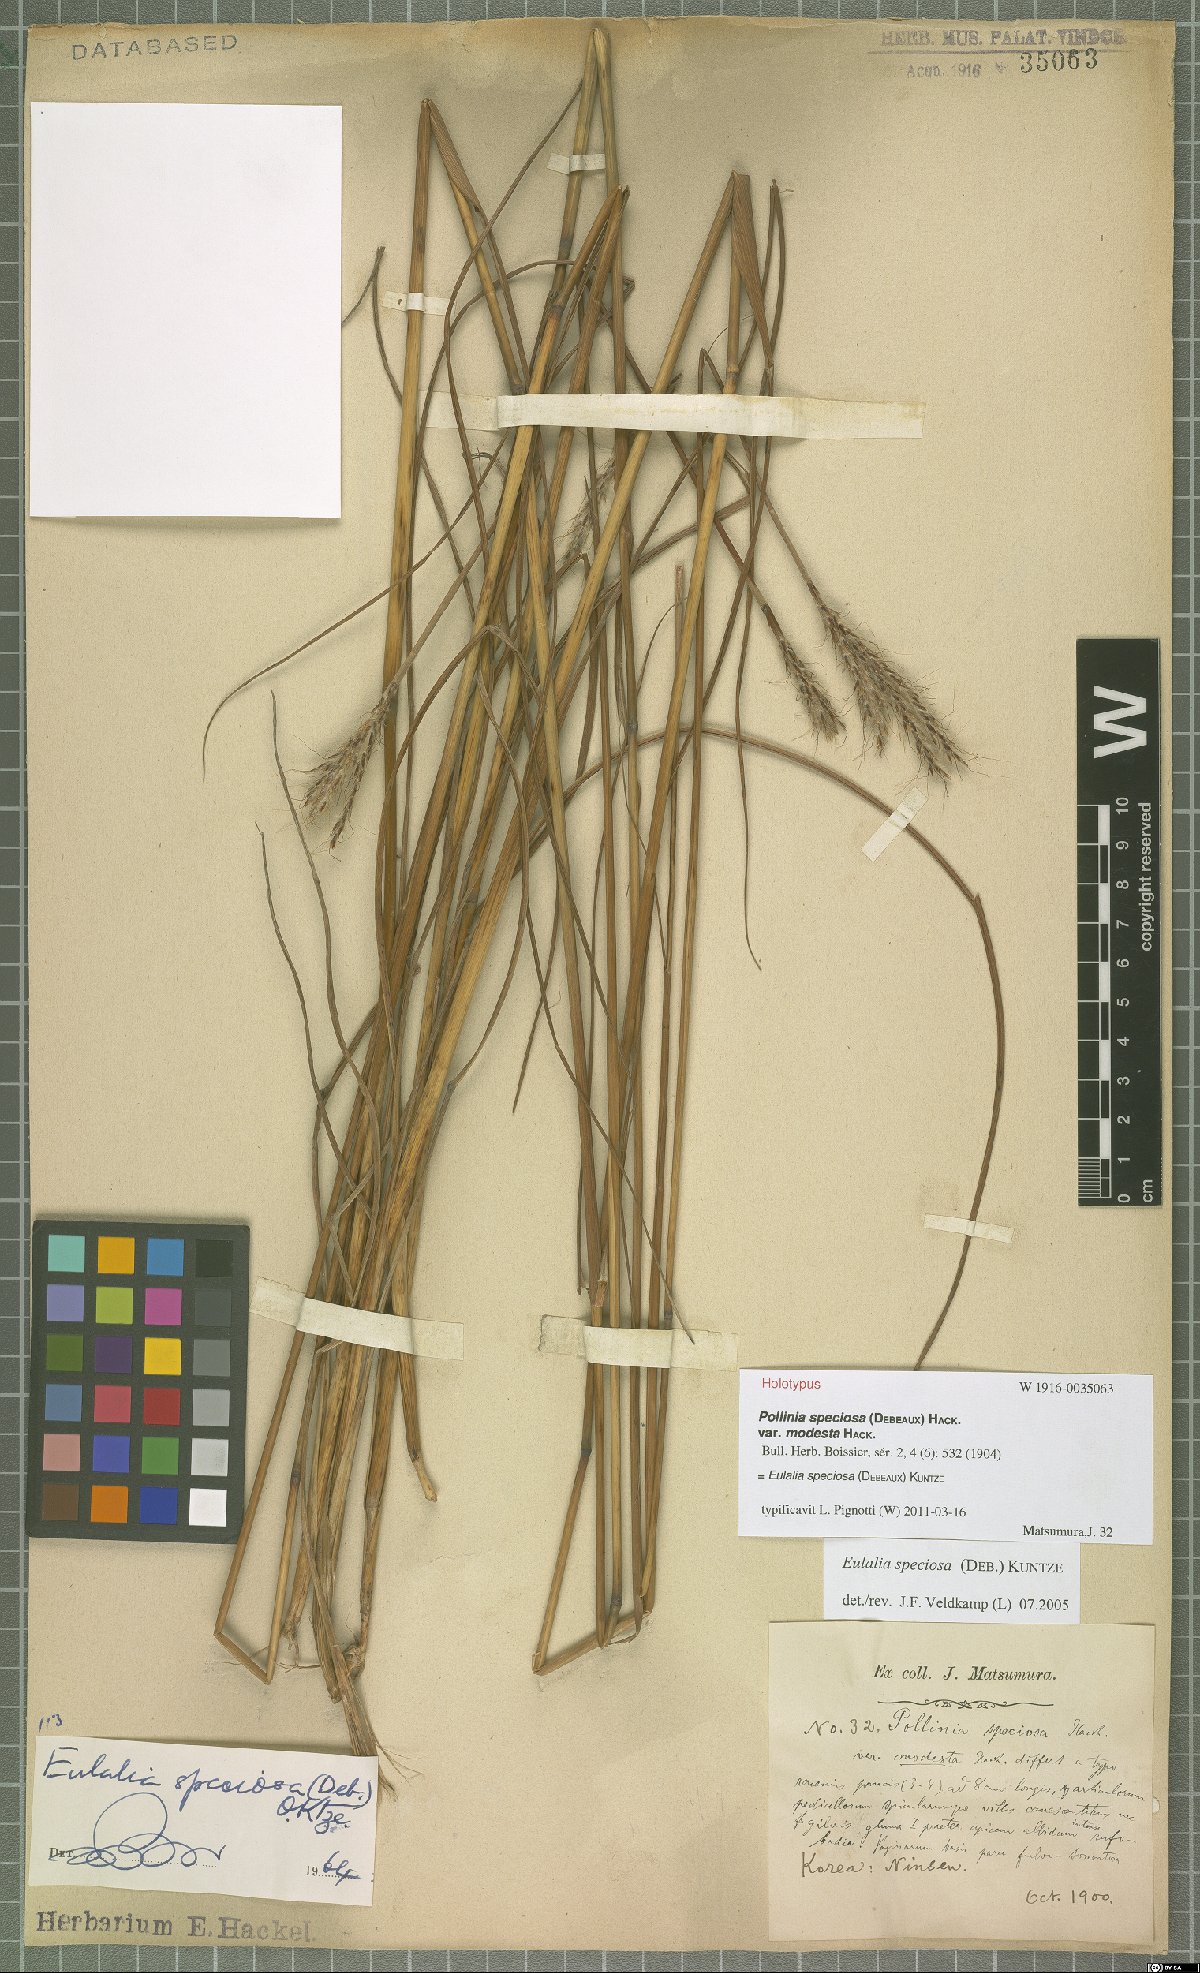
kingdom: Plantae
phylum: Tracheophyta
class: Liliopsida
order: Poales
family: Poaceae
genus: Pseudopogonatherum
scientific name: Pseudopogonatherum speciosum
